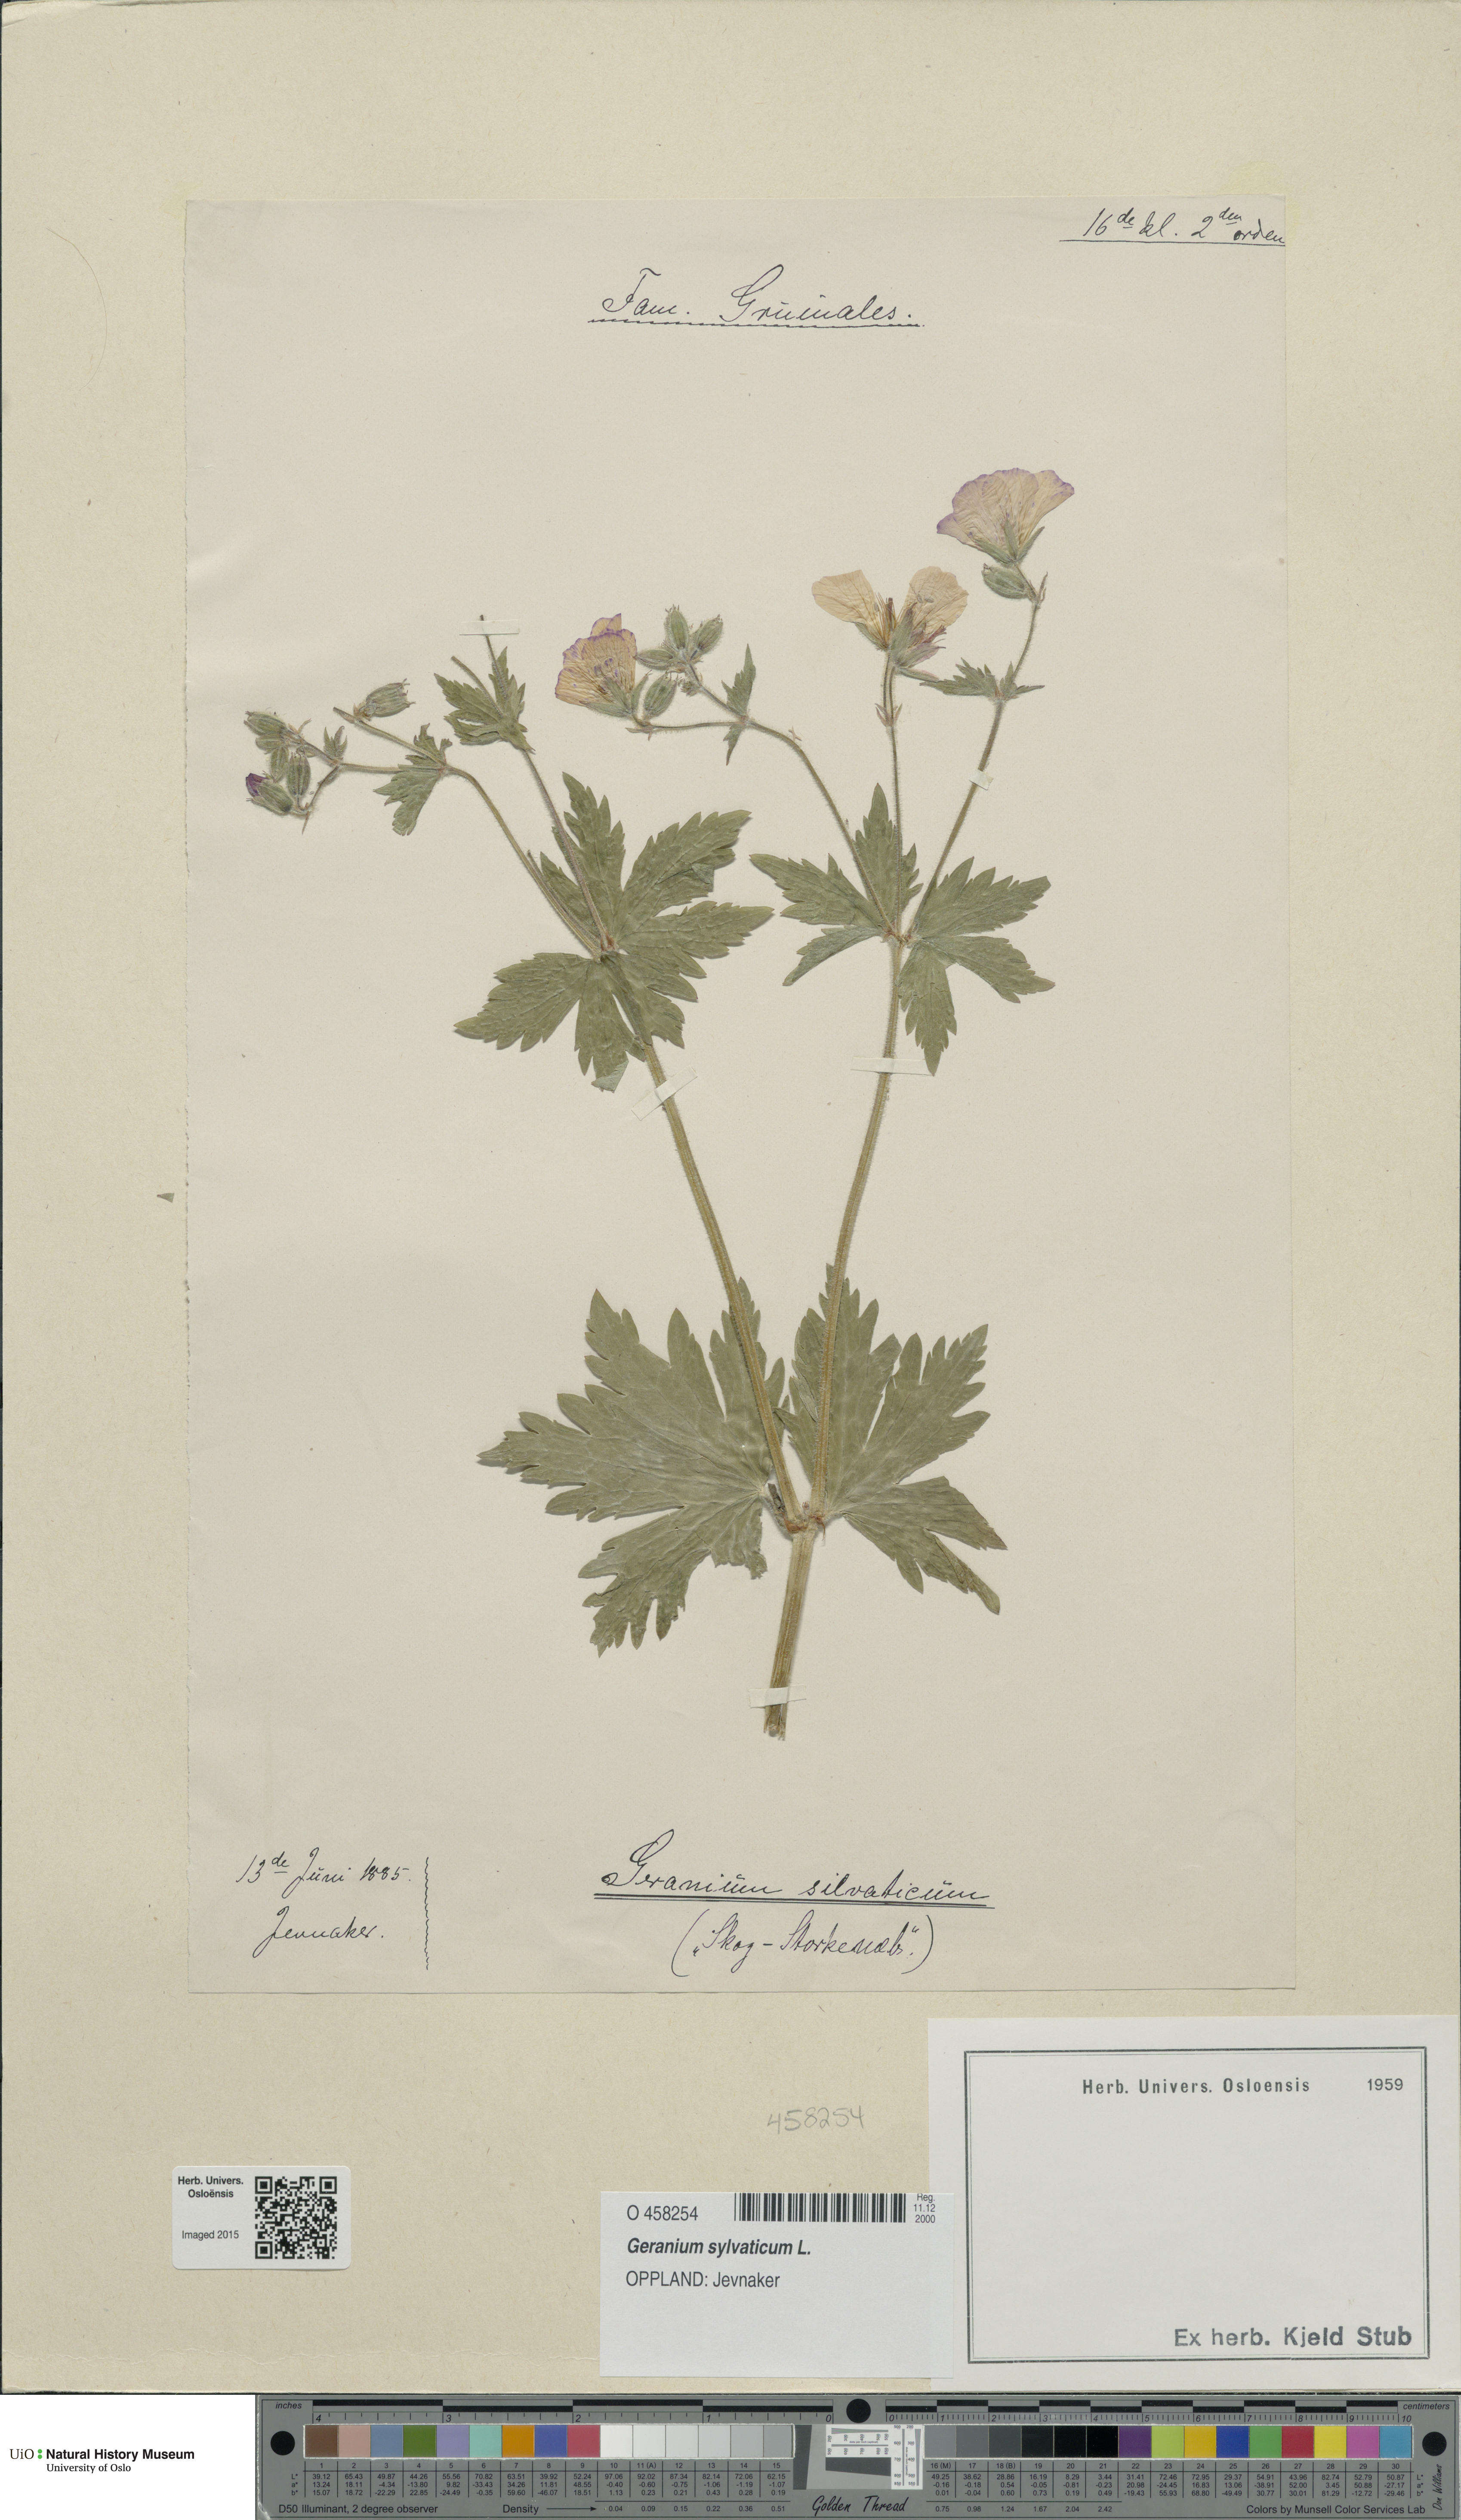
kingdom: Plantae
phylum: Tracheophyta
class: Magnoliopsida
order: Geraniales
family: Geraniaceae
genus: Geranium
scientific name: Geranium sylvaticum
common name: Wood crane's-bill
